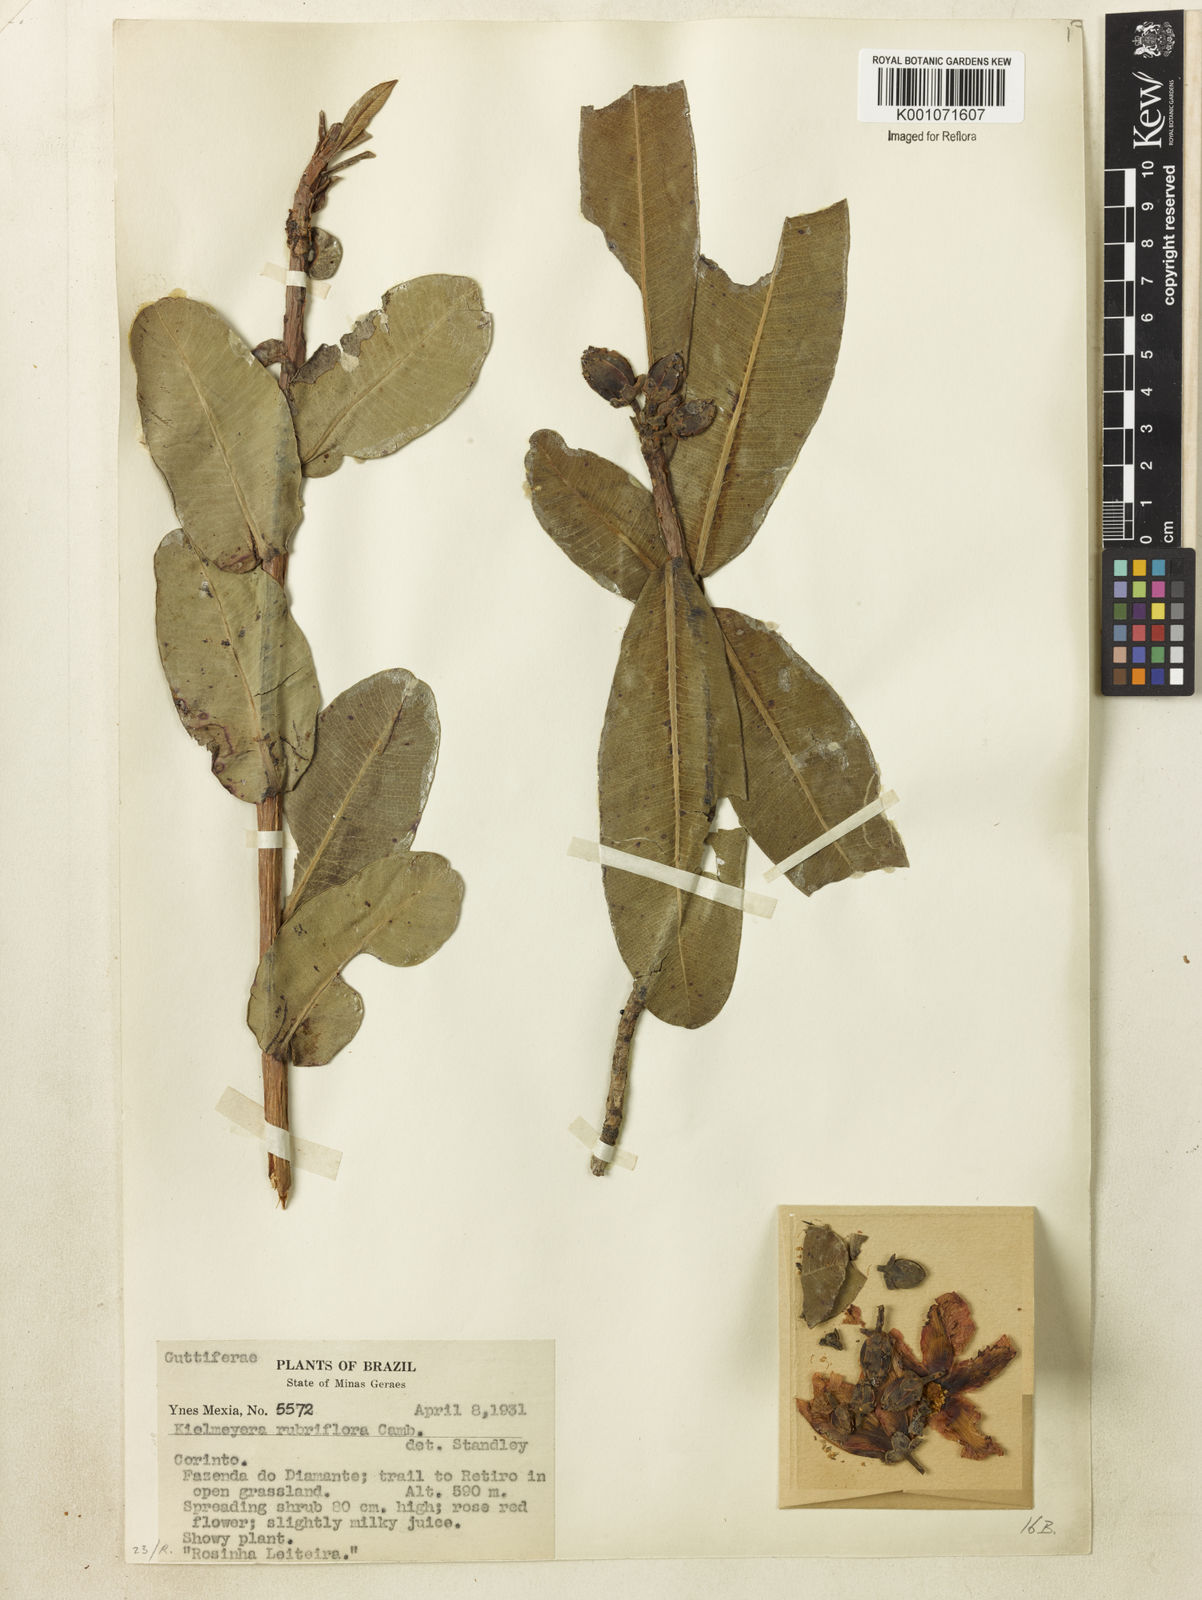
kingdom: Plantae
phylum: Tracheophyta
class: Magnoliopsida
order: Malpighiales
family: Calophyllaceae
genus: Kielmeyera
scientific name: Kielmeyera rubriflora
